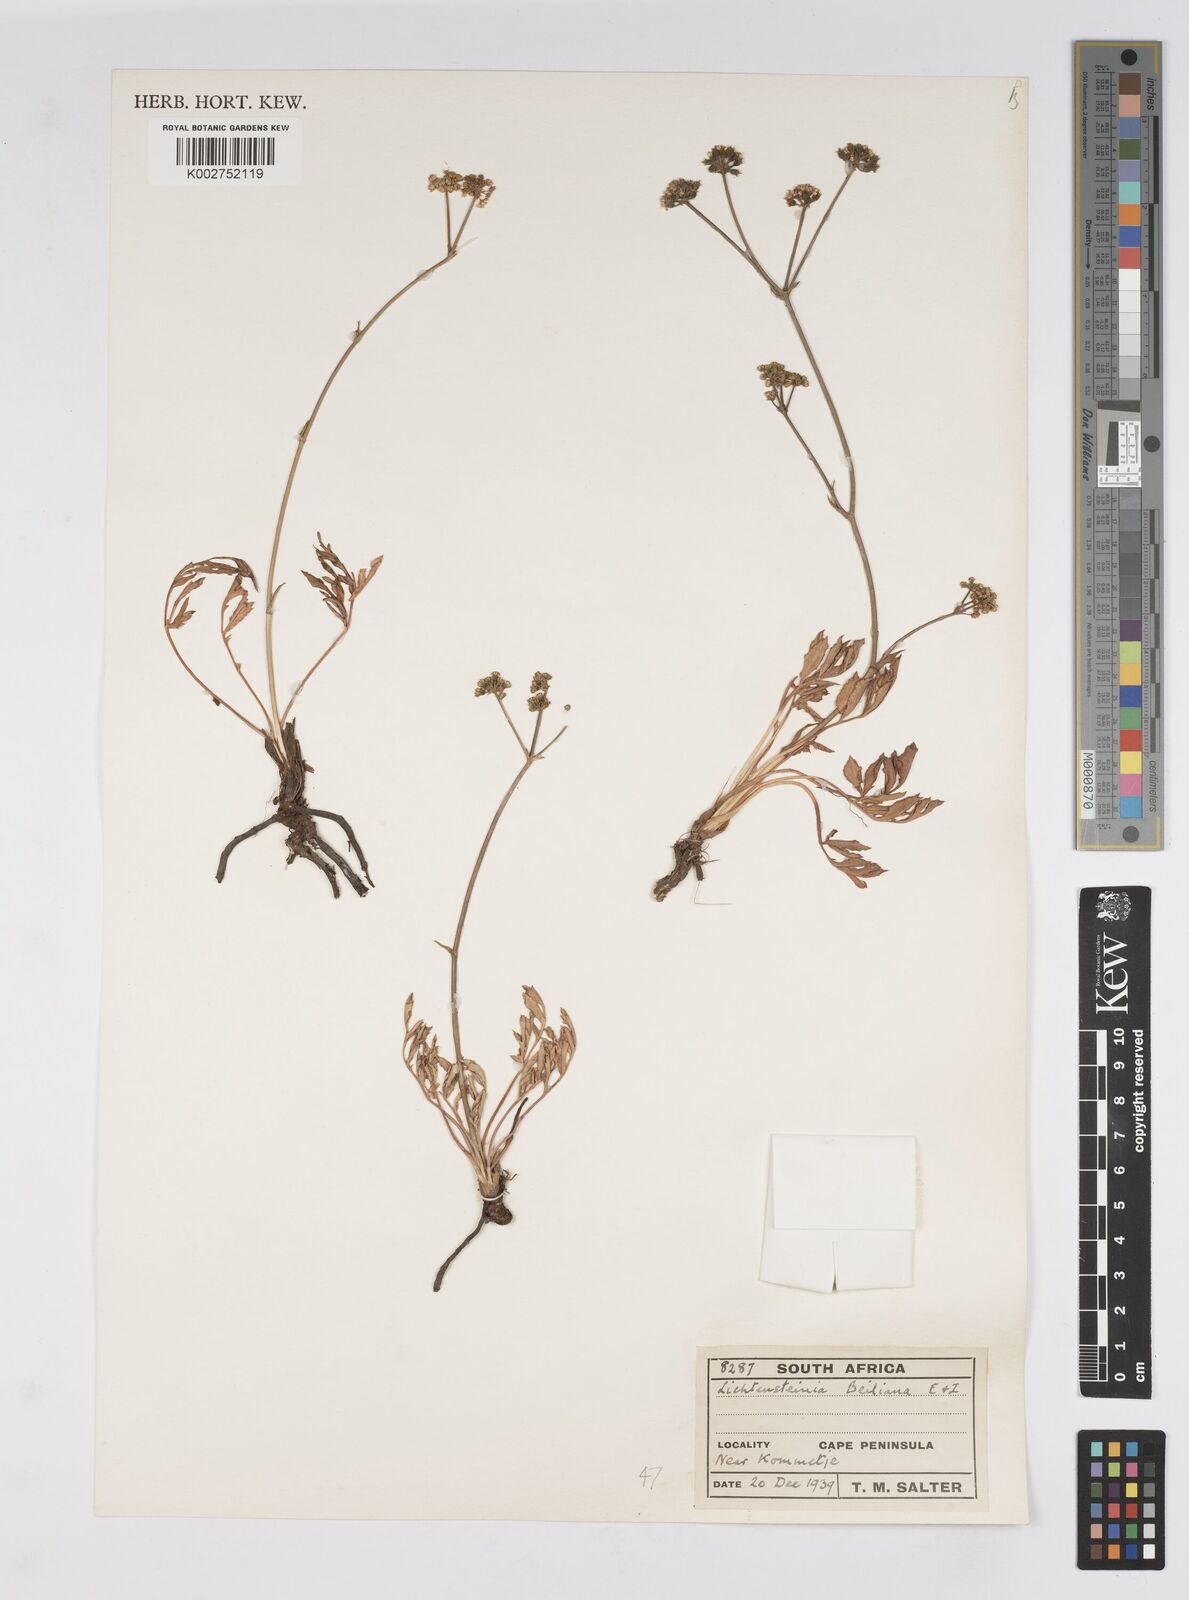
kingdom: Plantae
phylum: Tracheophyta
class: Magnoliopsida
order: Apiales
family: Apiaceae
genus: Lichtensteinia
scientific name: Lichtensteinia obscura
